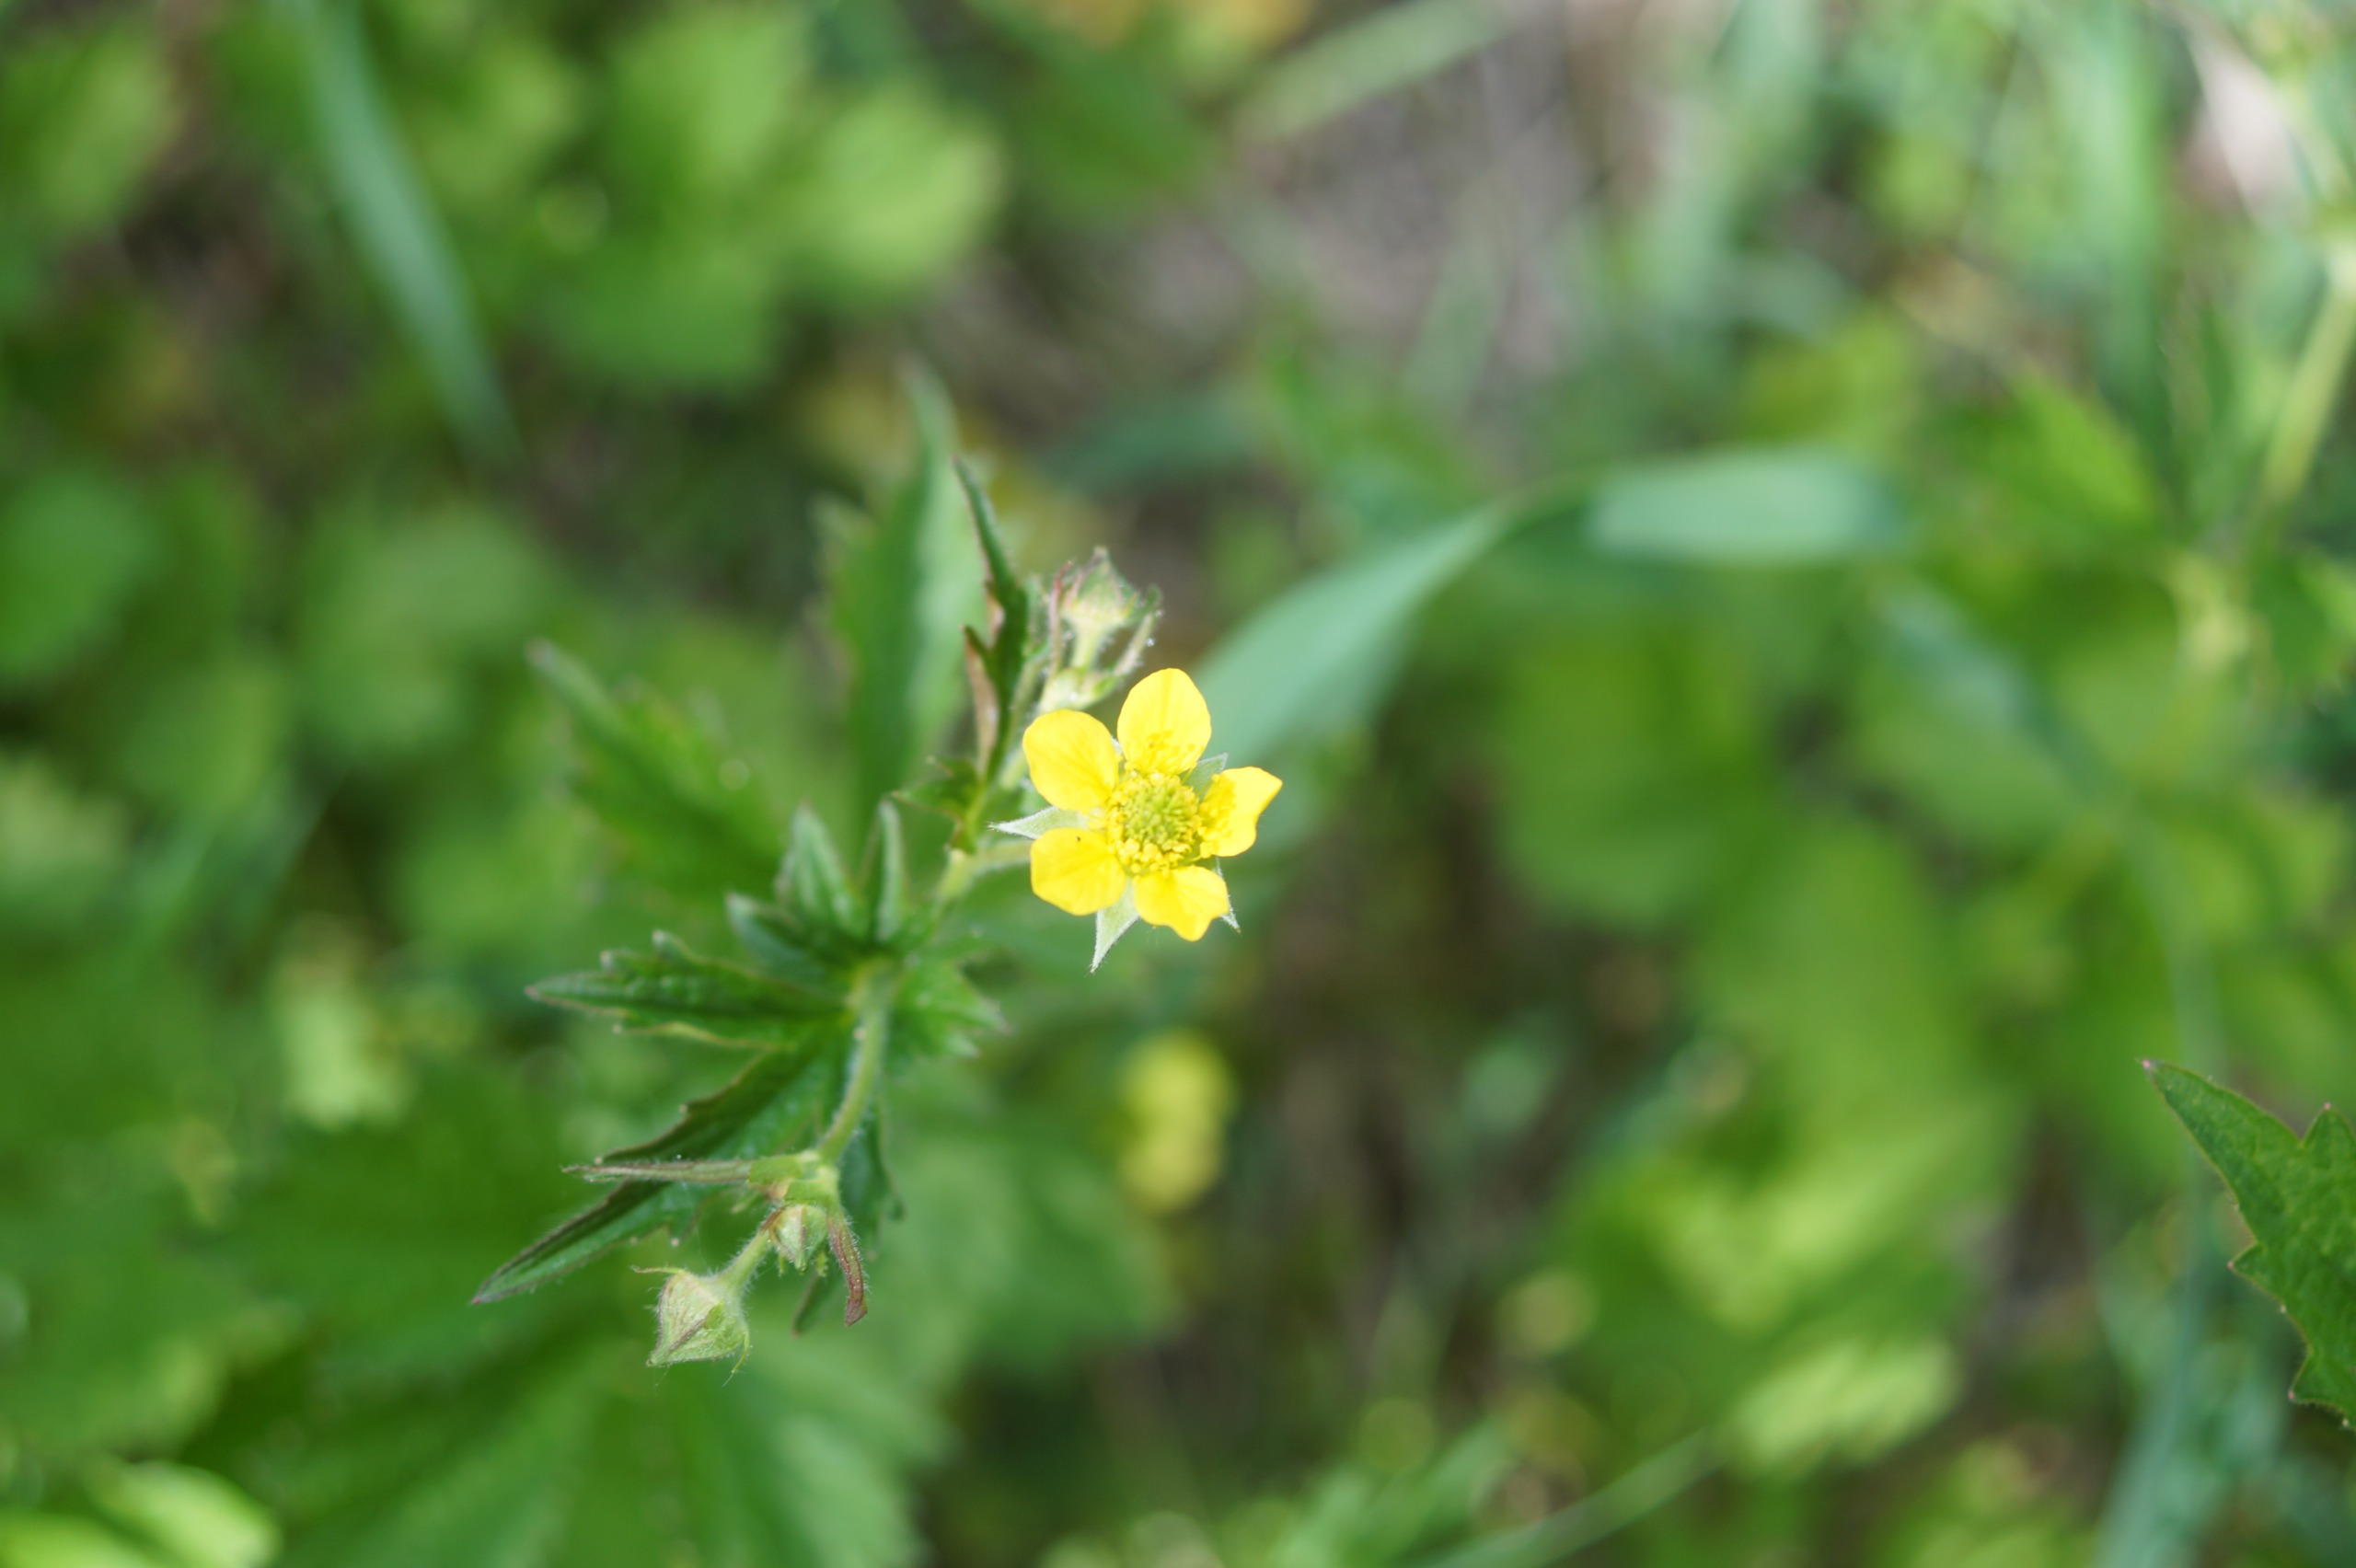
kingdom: Plantae
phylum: Tracheophyta
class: Magnoliopsida
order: Rosales
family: Rosaceae
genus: Geum
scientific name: Geum urbanum
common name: Feber-nellikerod
